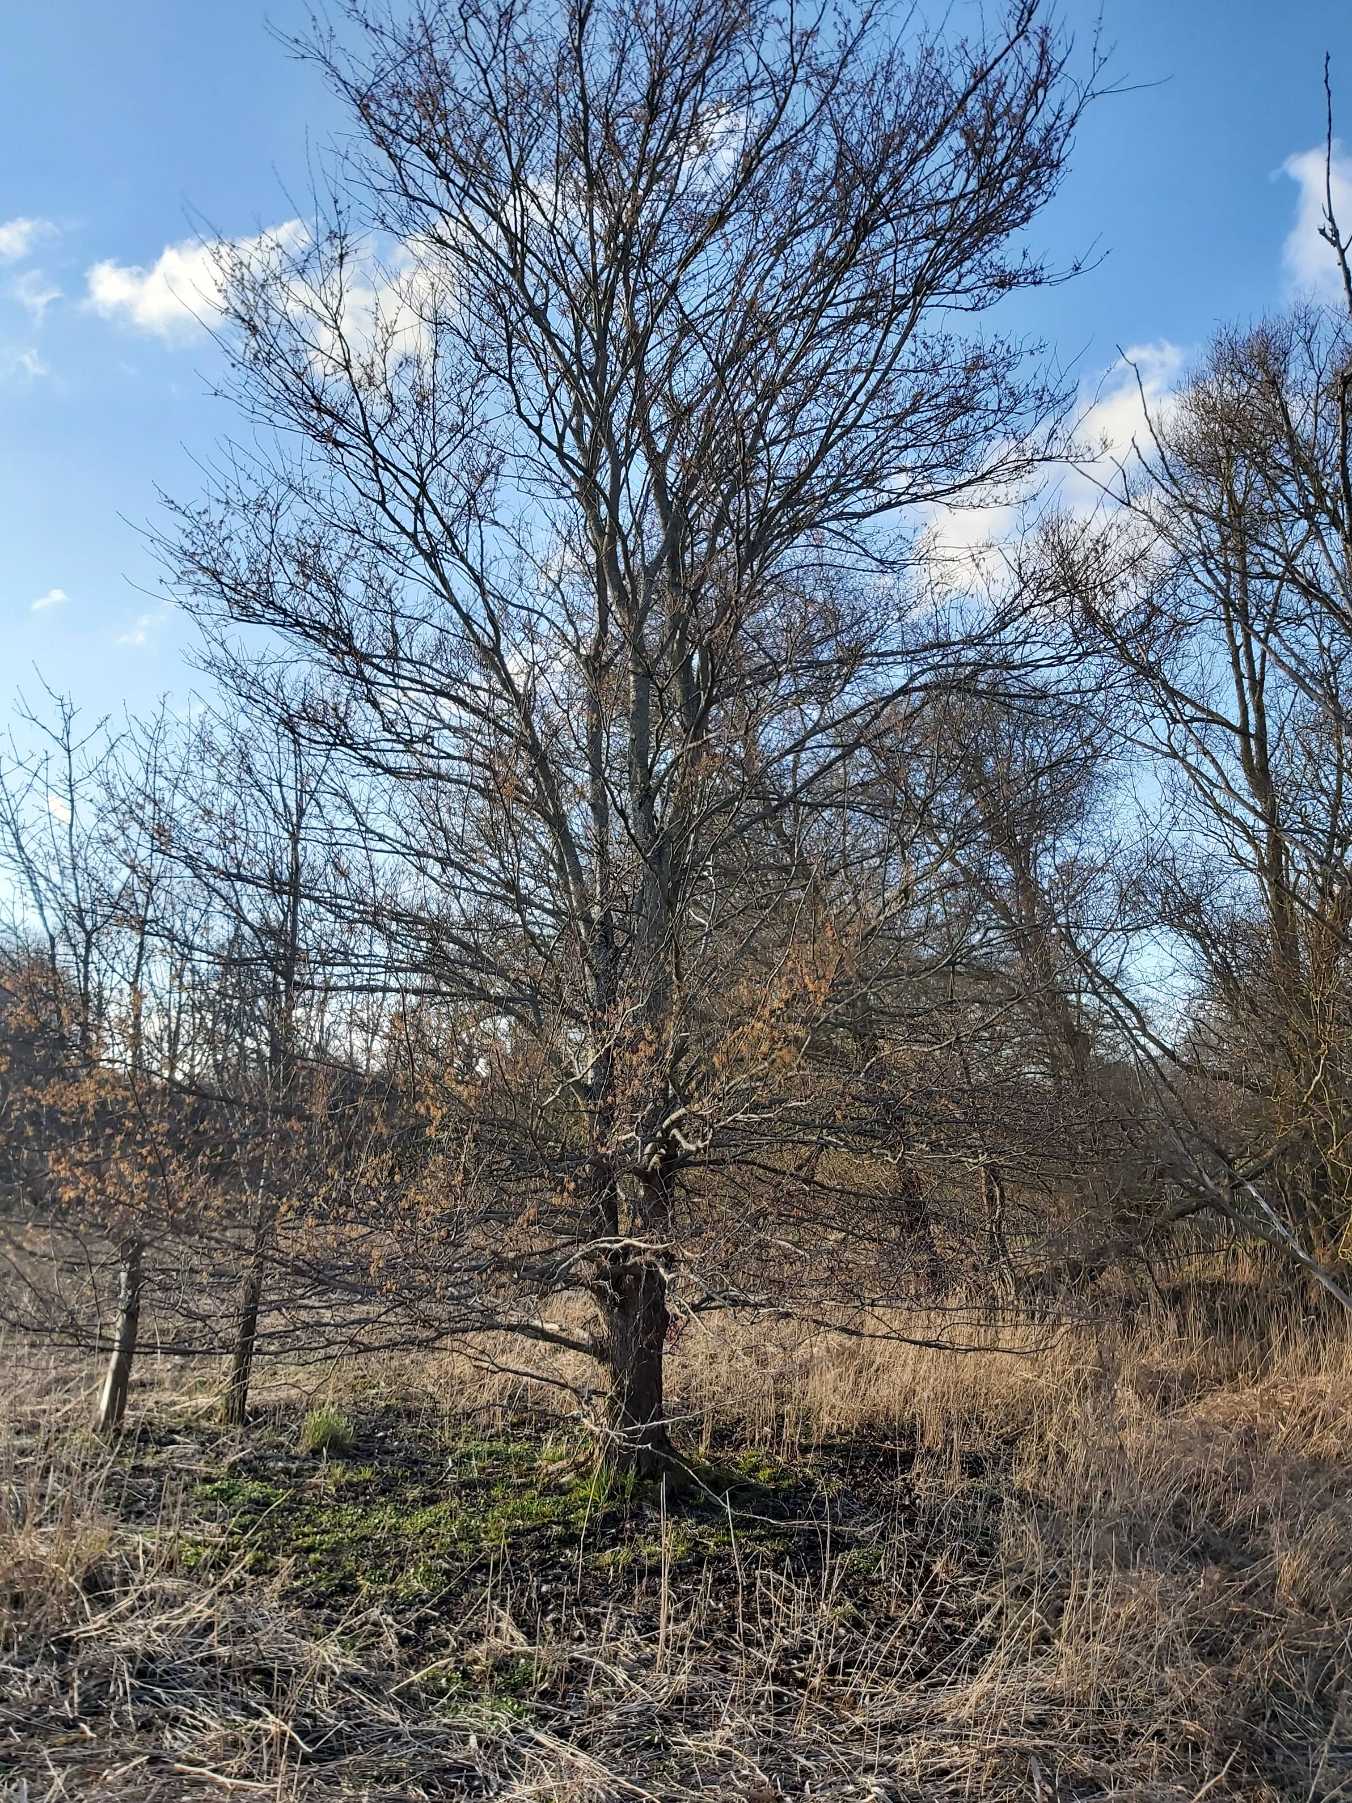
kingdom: Plantae
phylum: Tracheophyta
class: Magnoliopsida
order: Rosales
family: Ulmaceae
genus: Ulmus
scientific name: Ulmus laevis
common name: Skærm-elm
